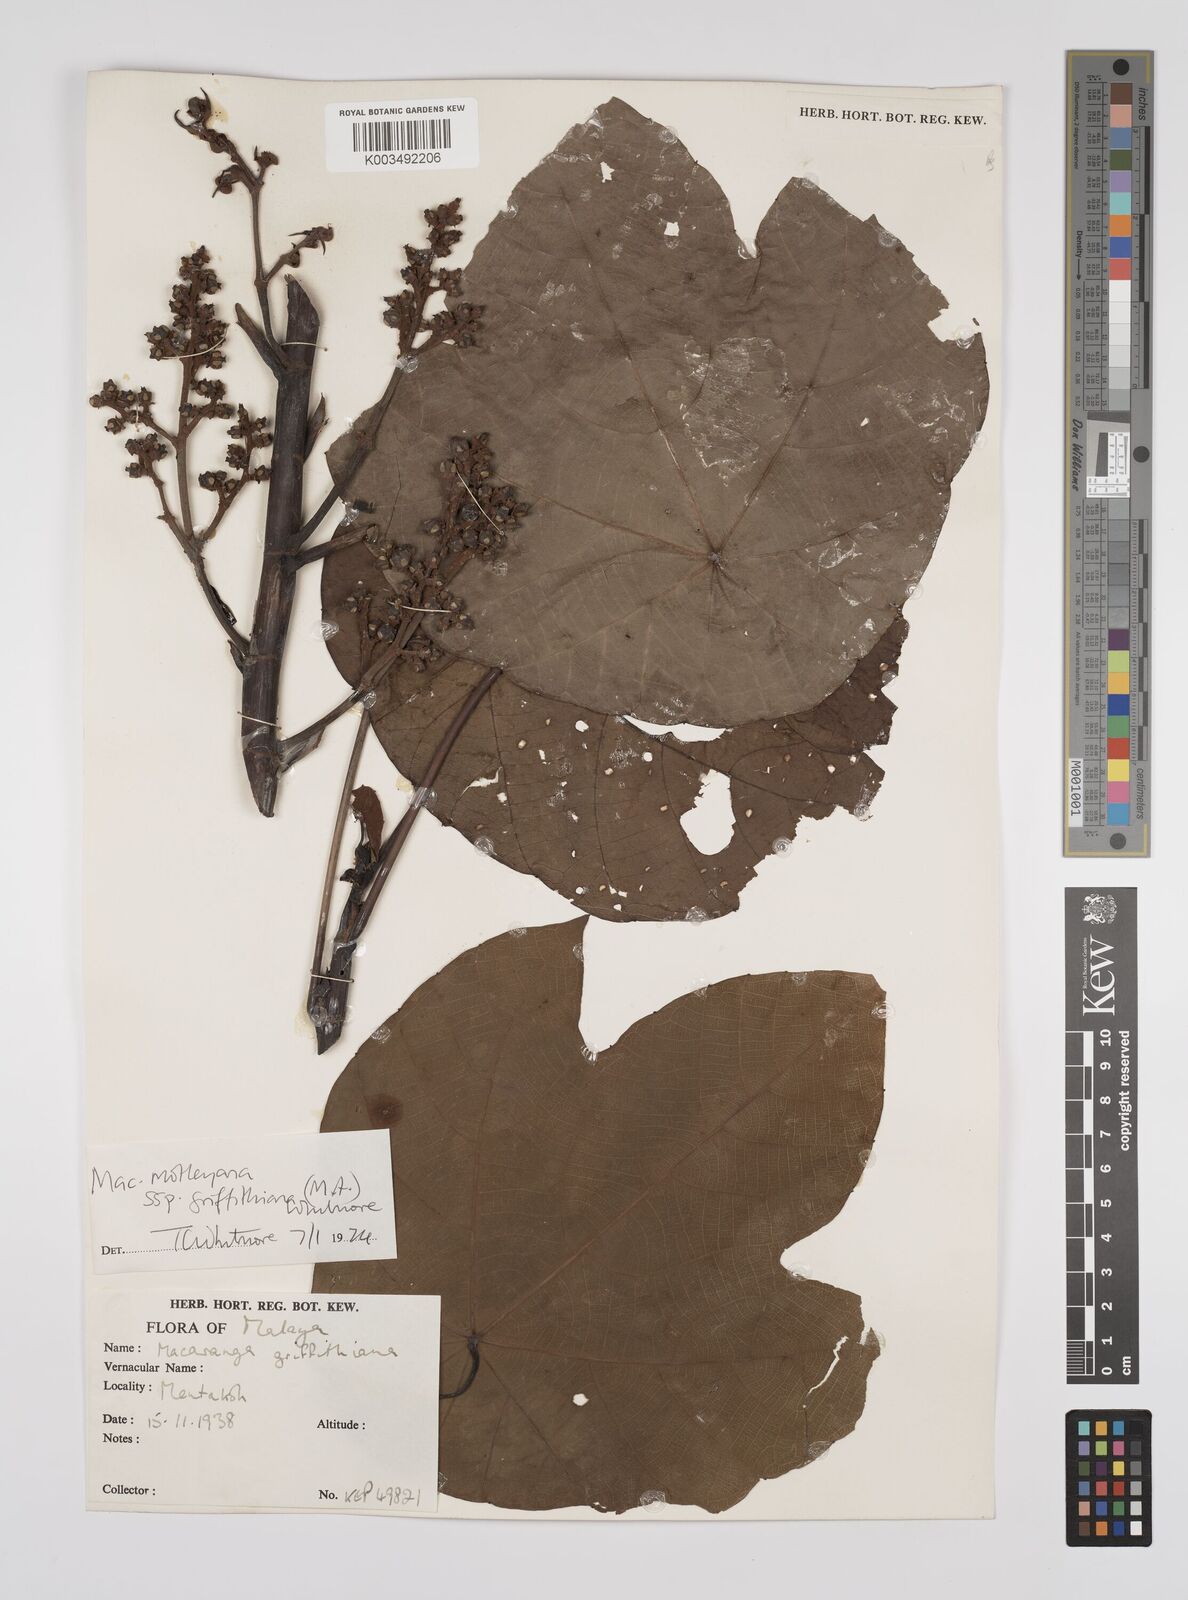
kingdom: Plantae
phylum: Tracheophyta
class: Magnoliopsida
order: Malpighiales
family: Euphorbiaceae
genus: Macaranga
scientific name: Macaranga griffithiana
